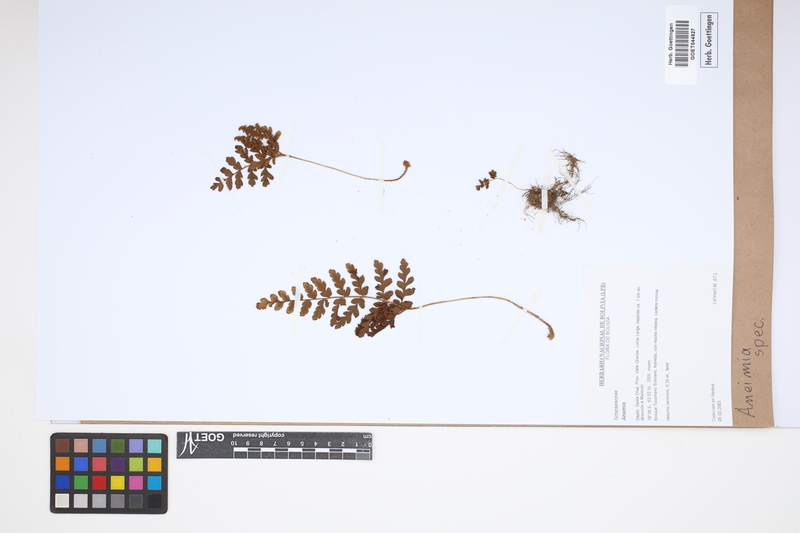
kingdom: Plantae
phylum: Tracheophyta
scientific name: Tracheophyta
